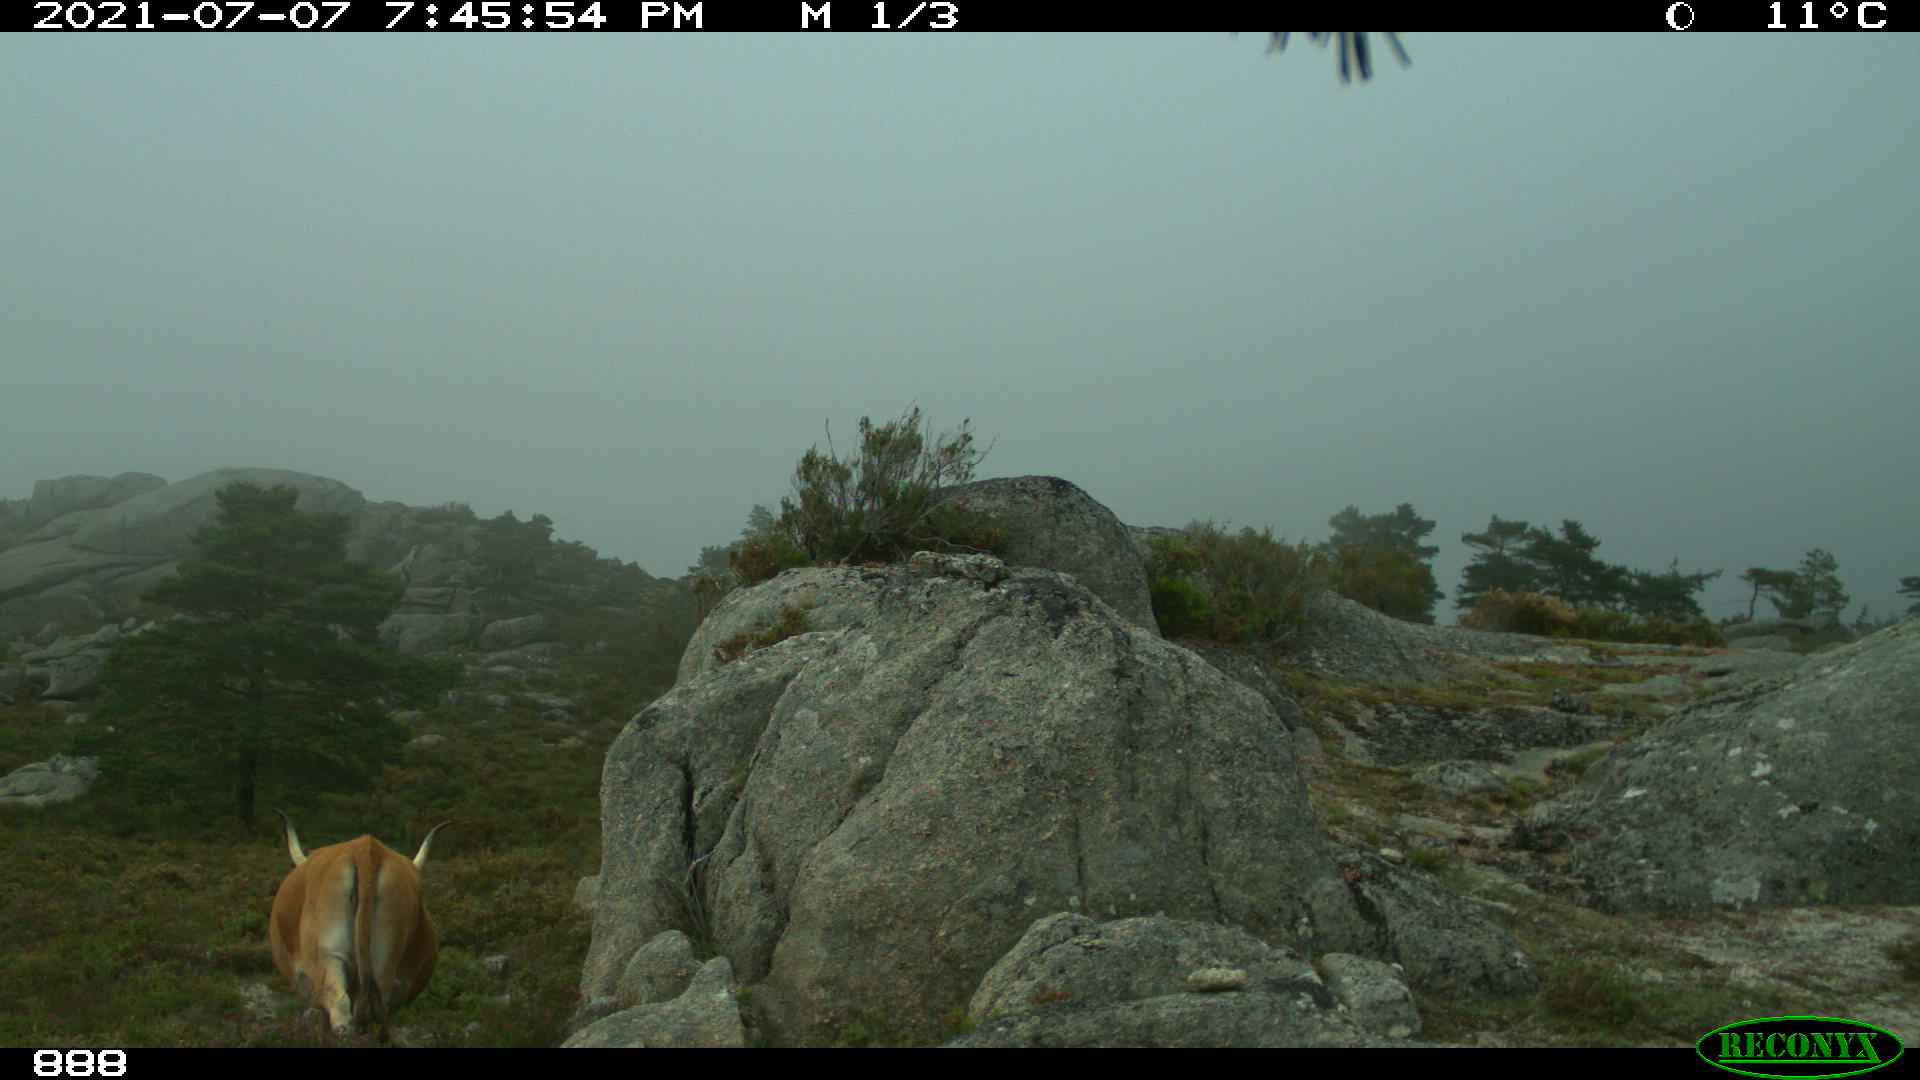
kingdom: Animalia
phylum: Chordata
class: Mammalia
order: Artiodactyla
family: Bovidae
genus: Bos
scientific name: Bos taurus
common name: Domesticated cattle
